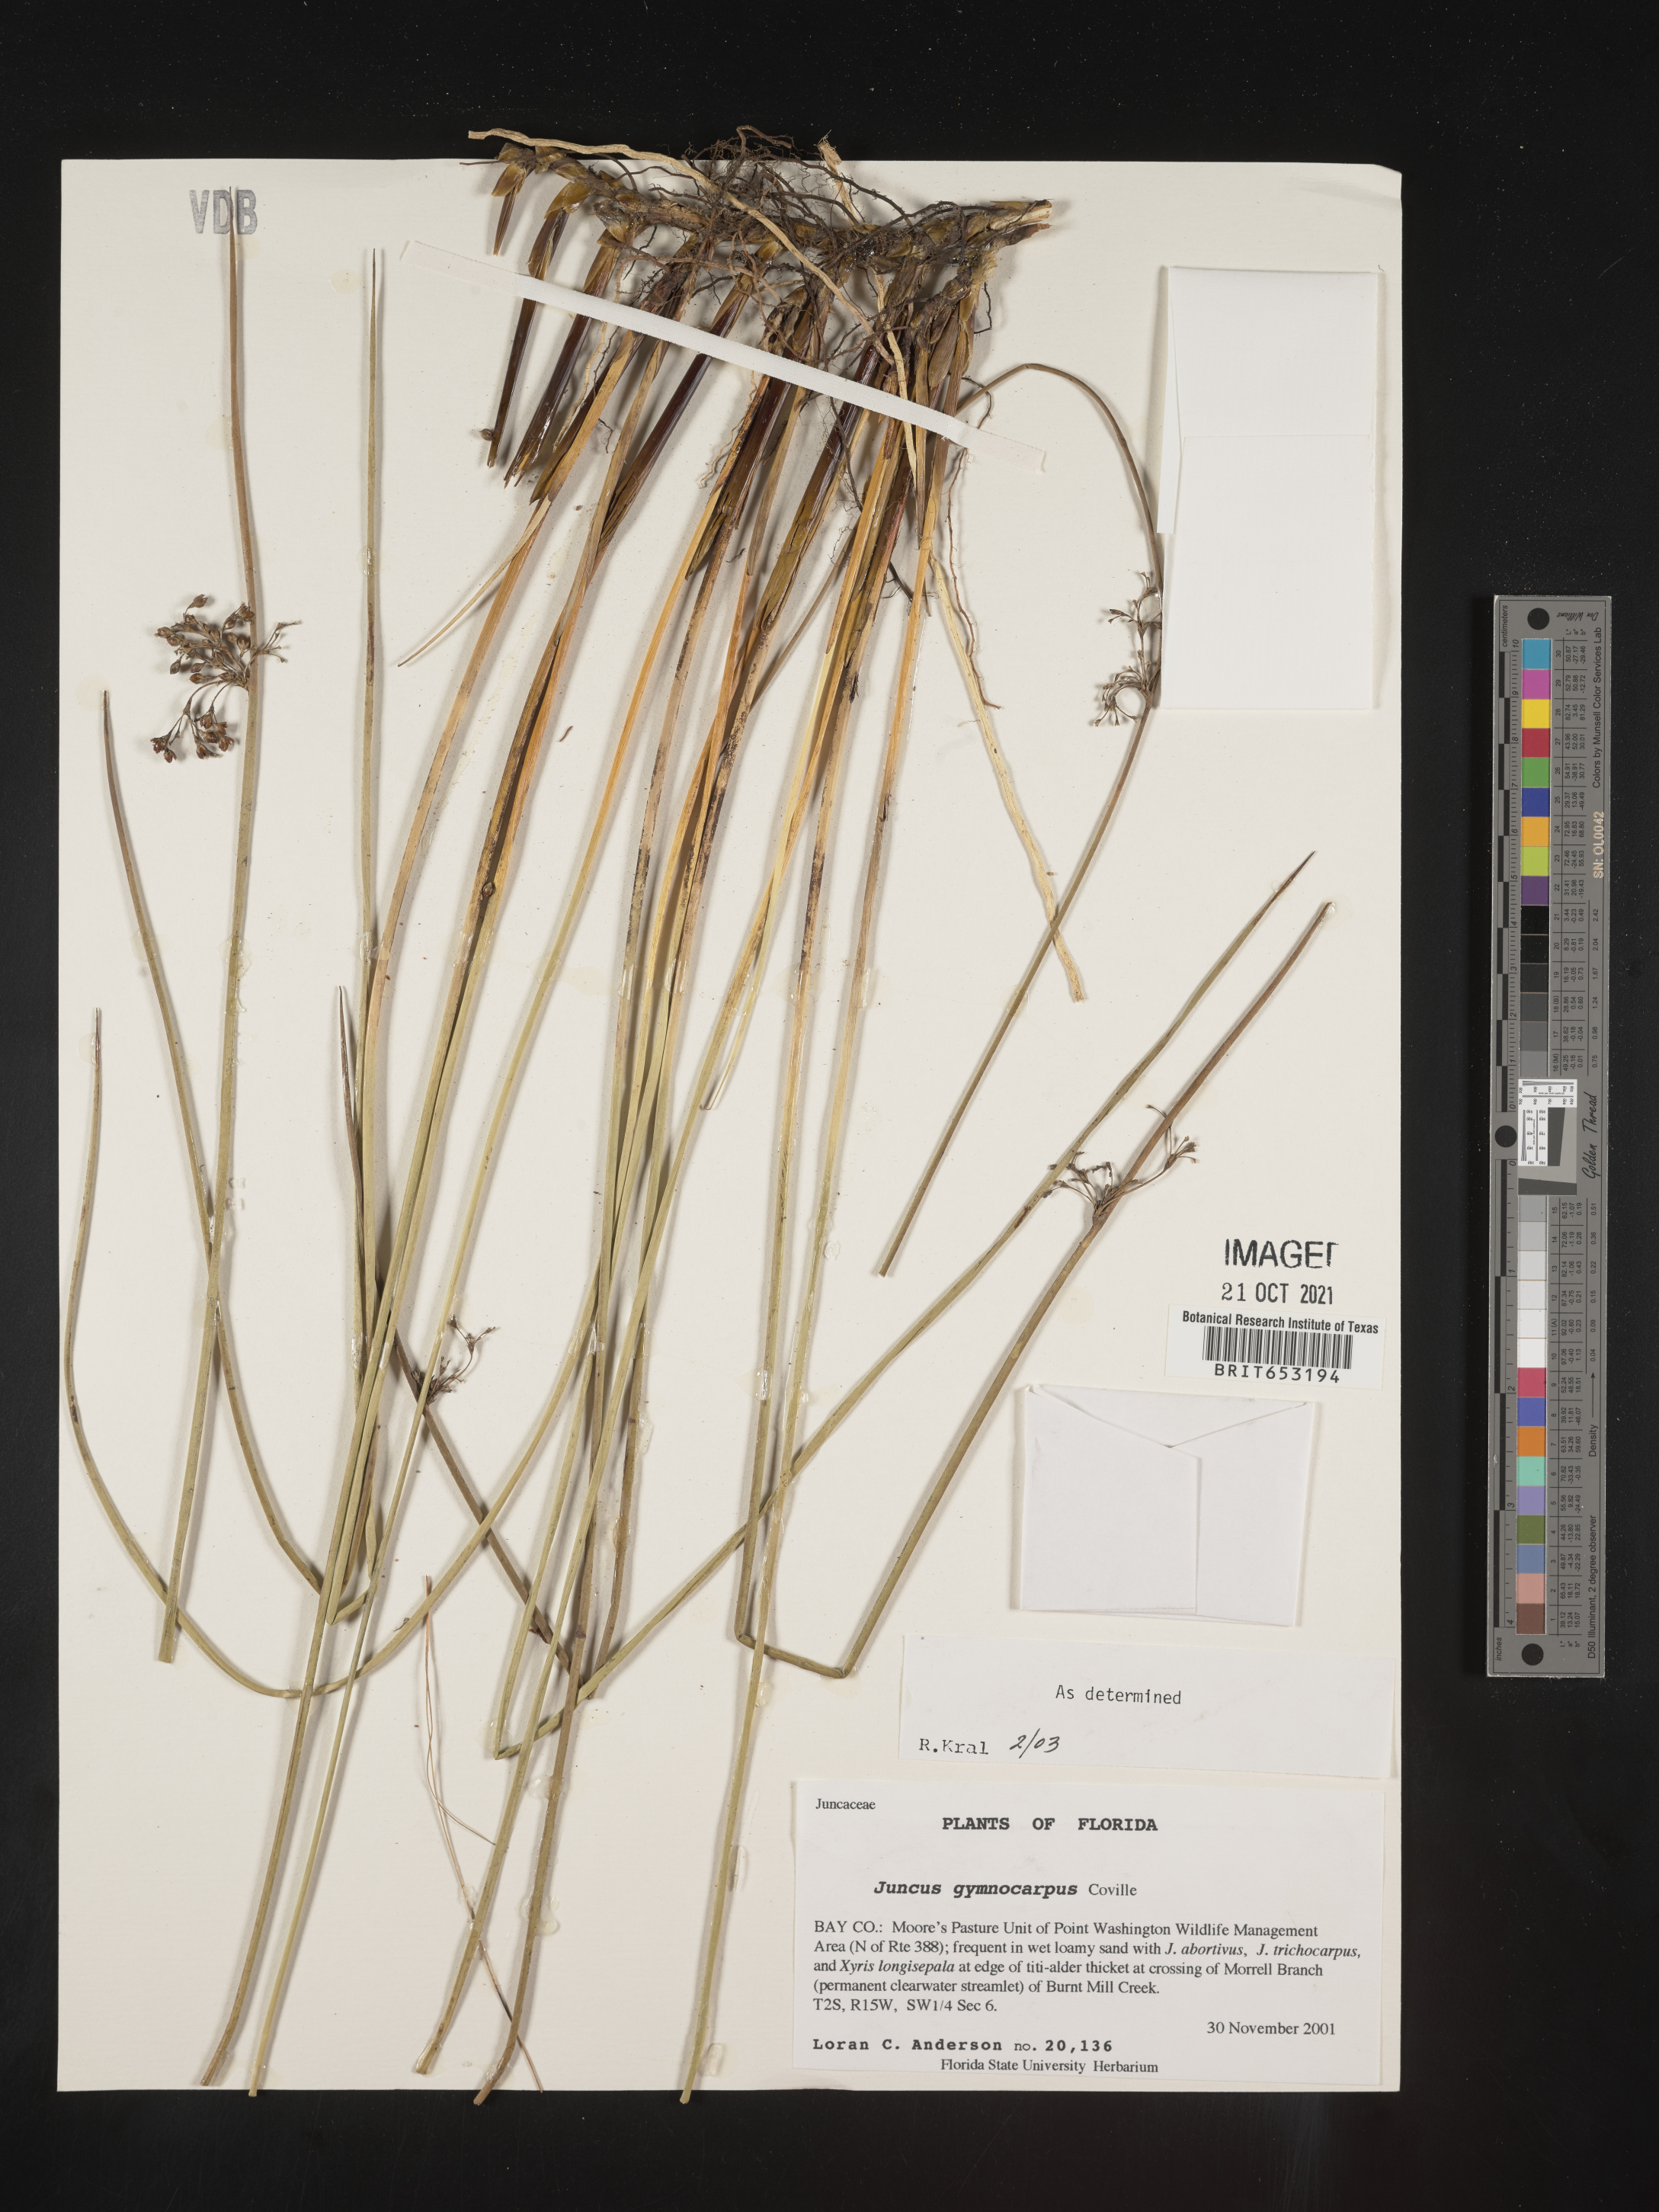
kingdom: Plantae
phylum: Tracheophyta
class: Liliopsida
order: Poales
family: Juncaceae
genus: Juncus
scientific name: Juncus gymnocarpus
